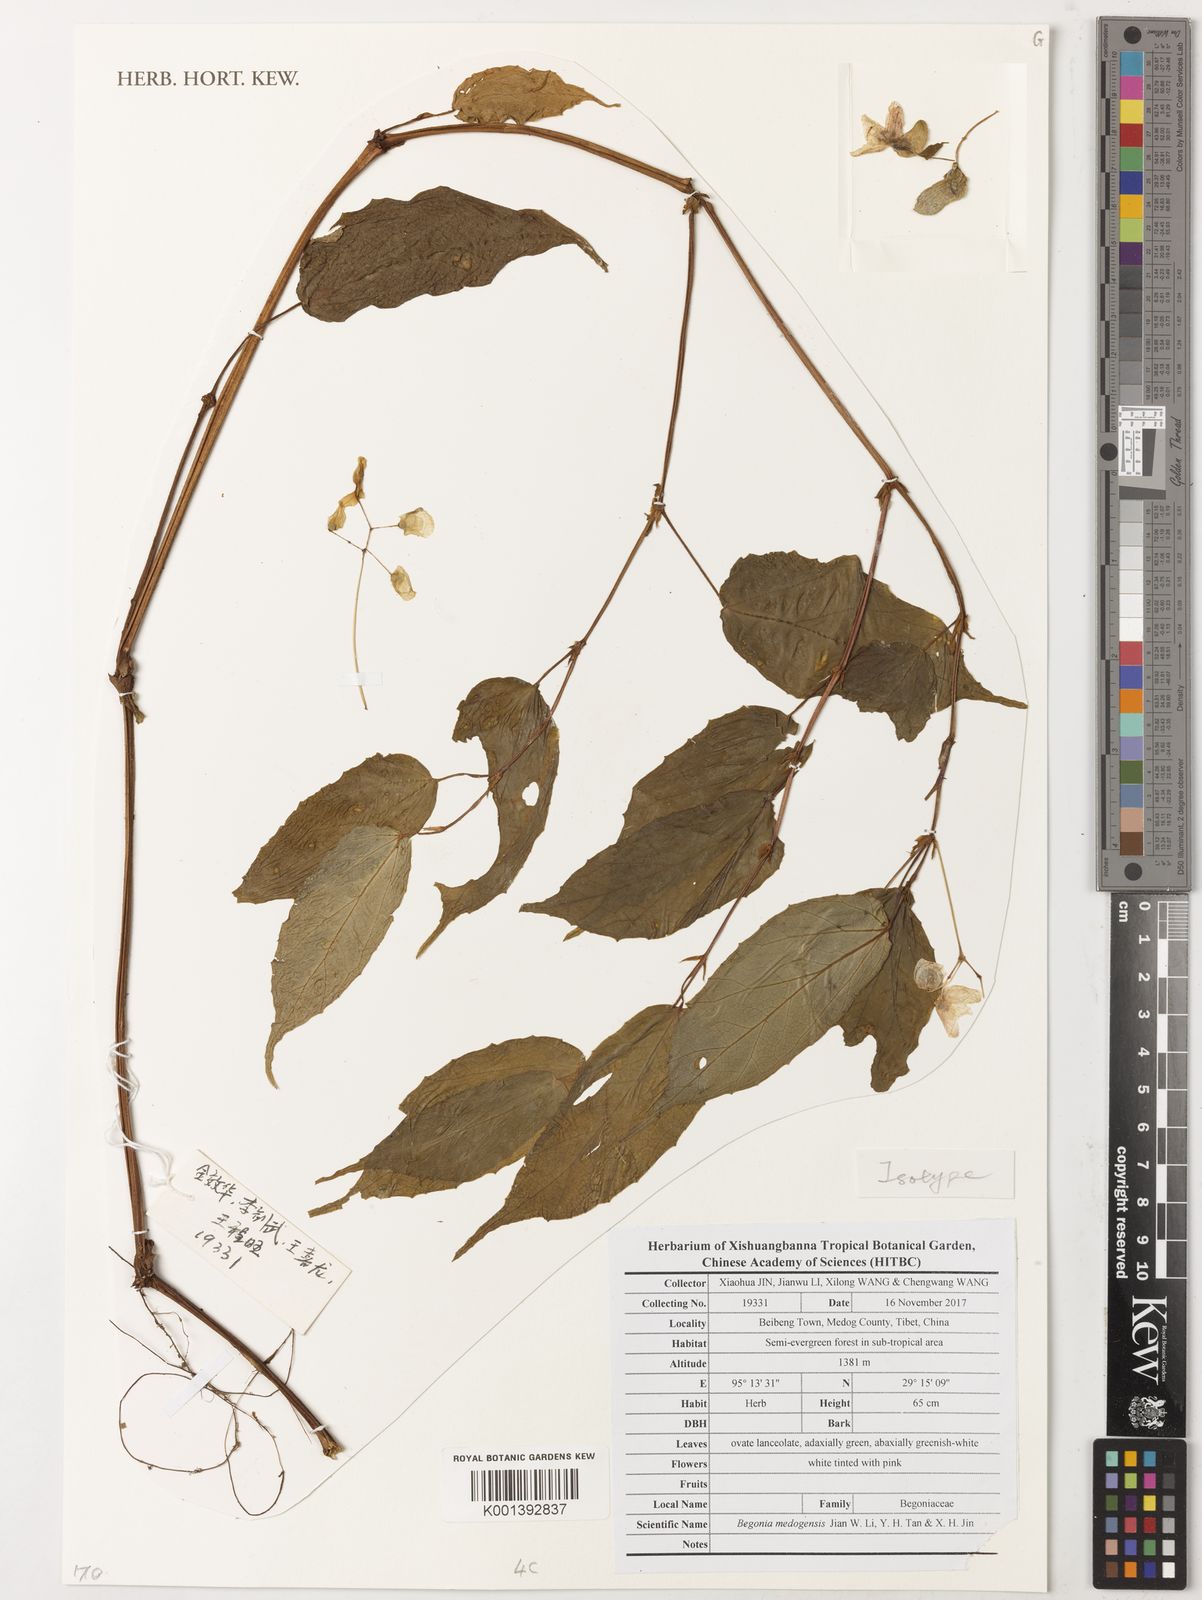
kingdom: Plantae
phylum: Tracheophyta
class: Magnoliopsida
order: Cucurbitales
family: Begoniaceae
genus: Begonia
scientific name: Begonia medogensis
